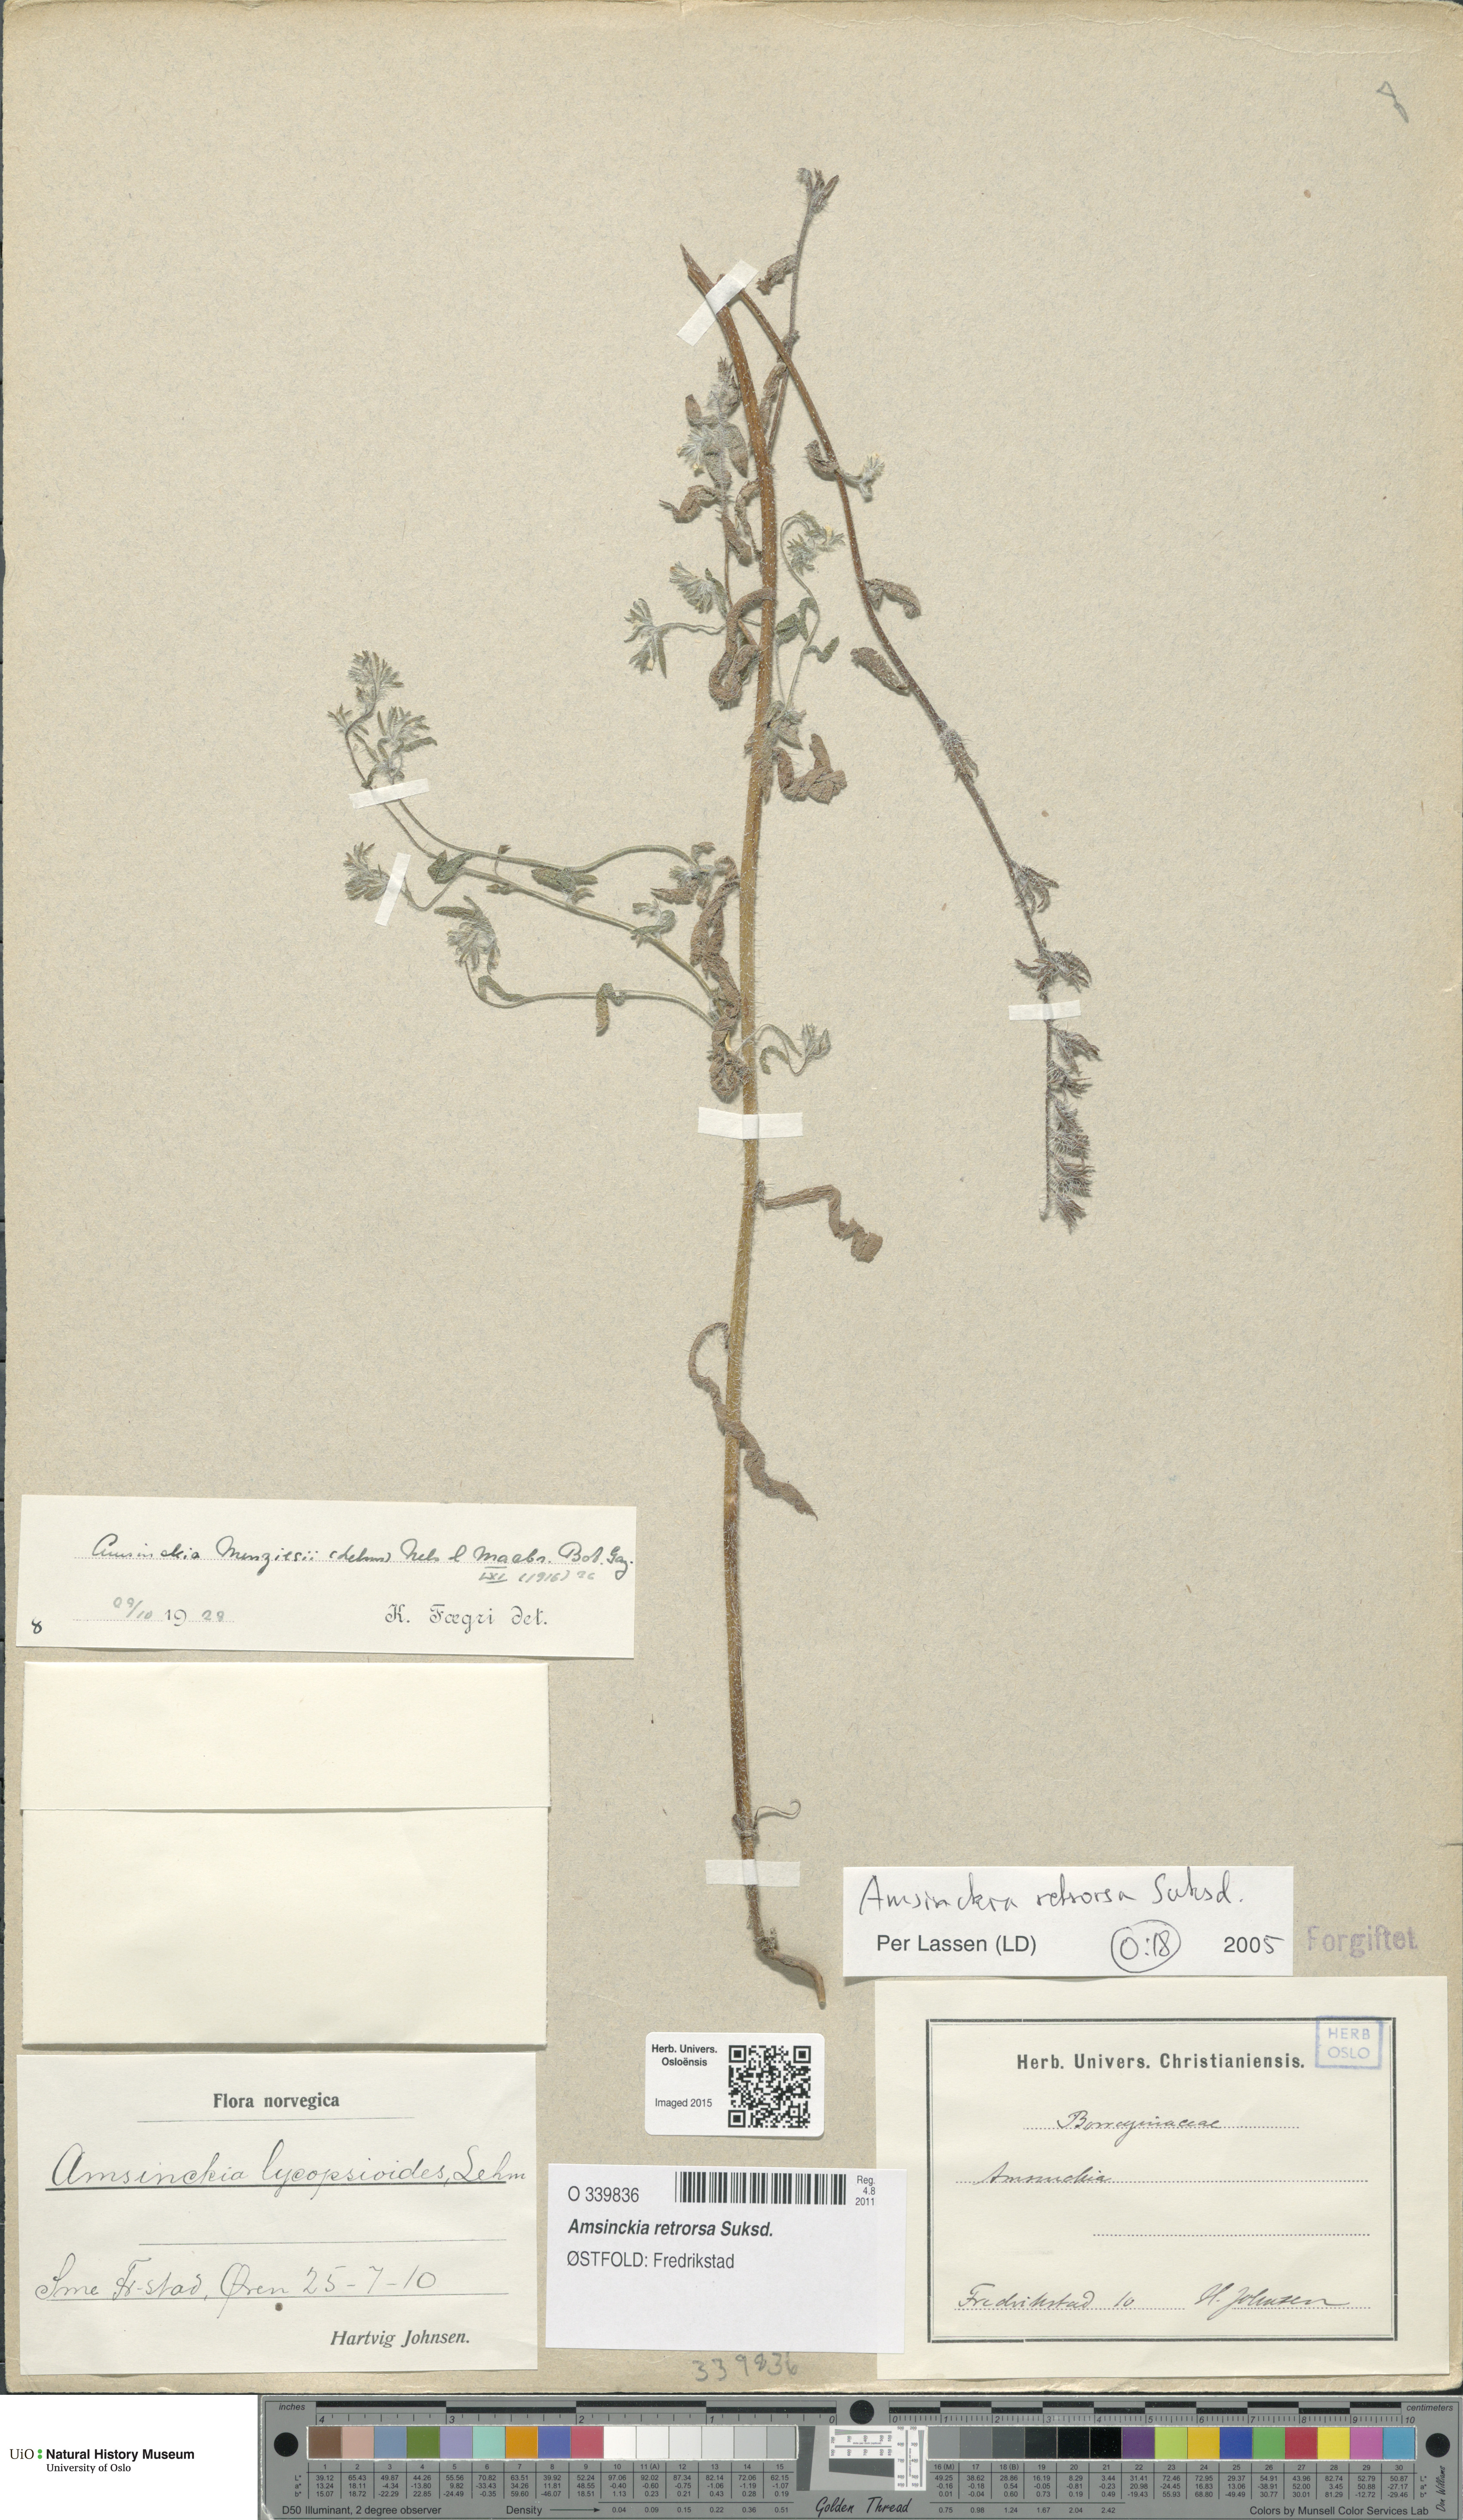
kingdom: Plantae
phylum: Tracheophyta
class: Magnoliopsida
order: Boraginales
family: Boraginaceae
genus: Amsinckia
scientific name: Amsinckia menziesii
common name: Menzies' fiddleneck
